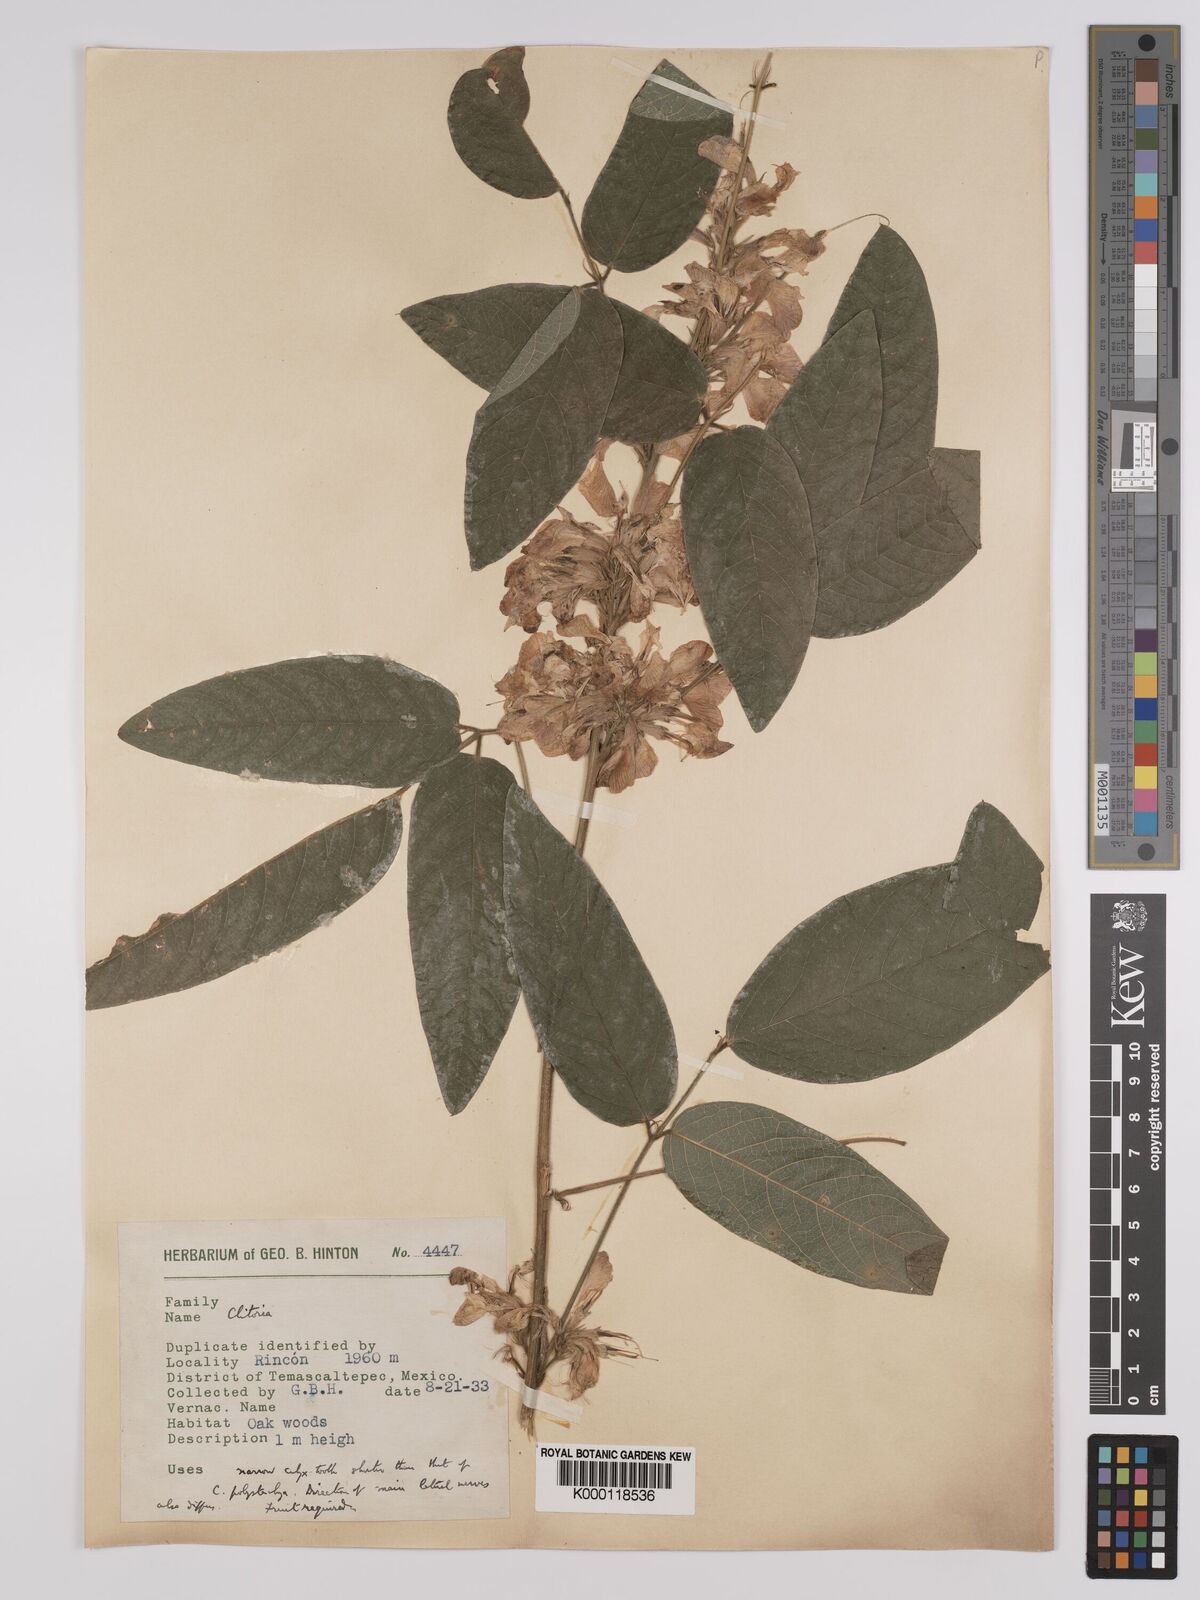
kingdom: Plantae
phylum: Tracheophyta
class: Magnoliopsida
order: Fabales
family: Fabaceae
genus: Clitoria
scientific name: Clitoria polystachya
